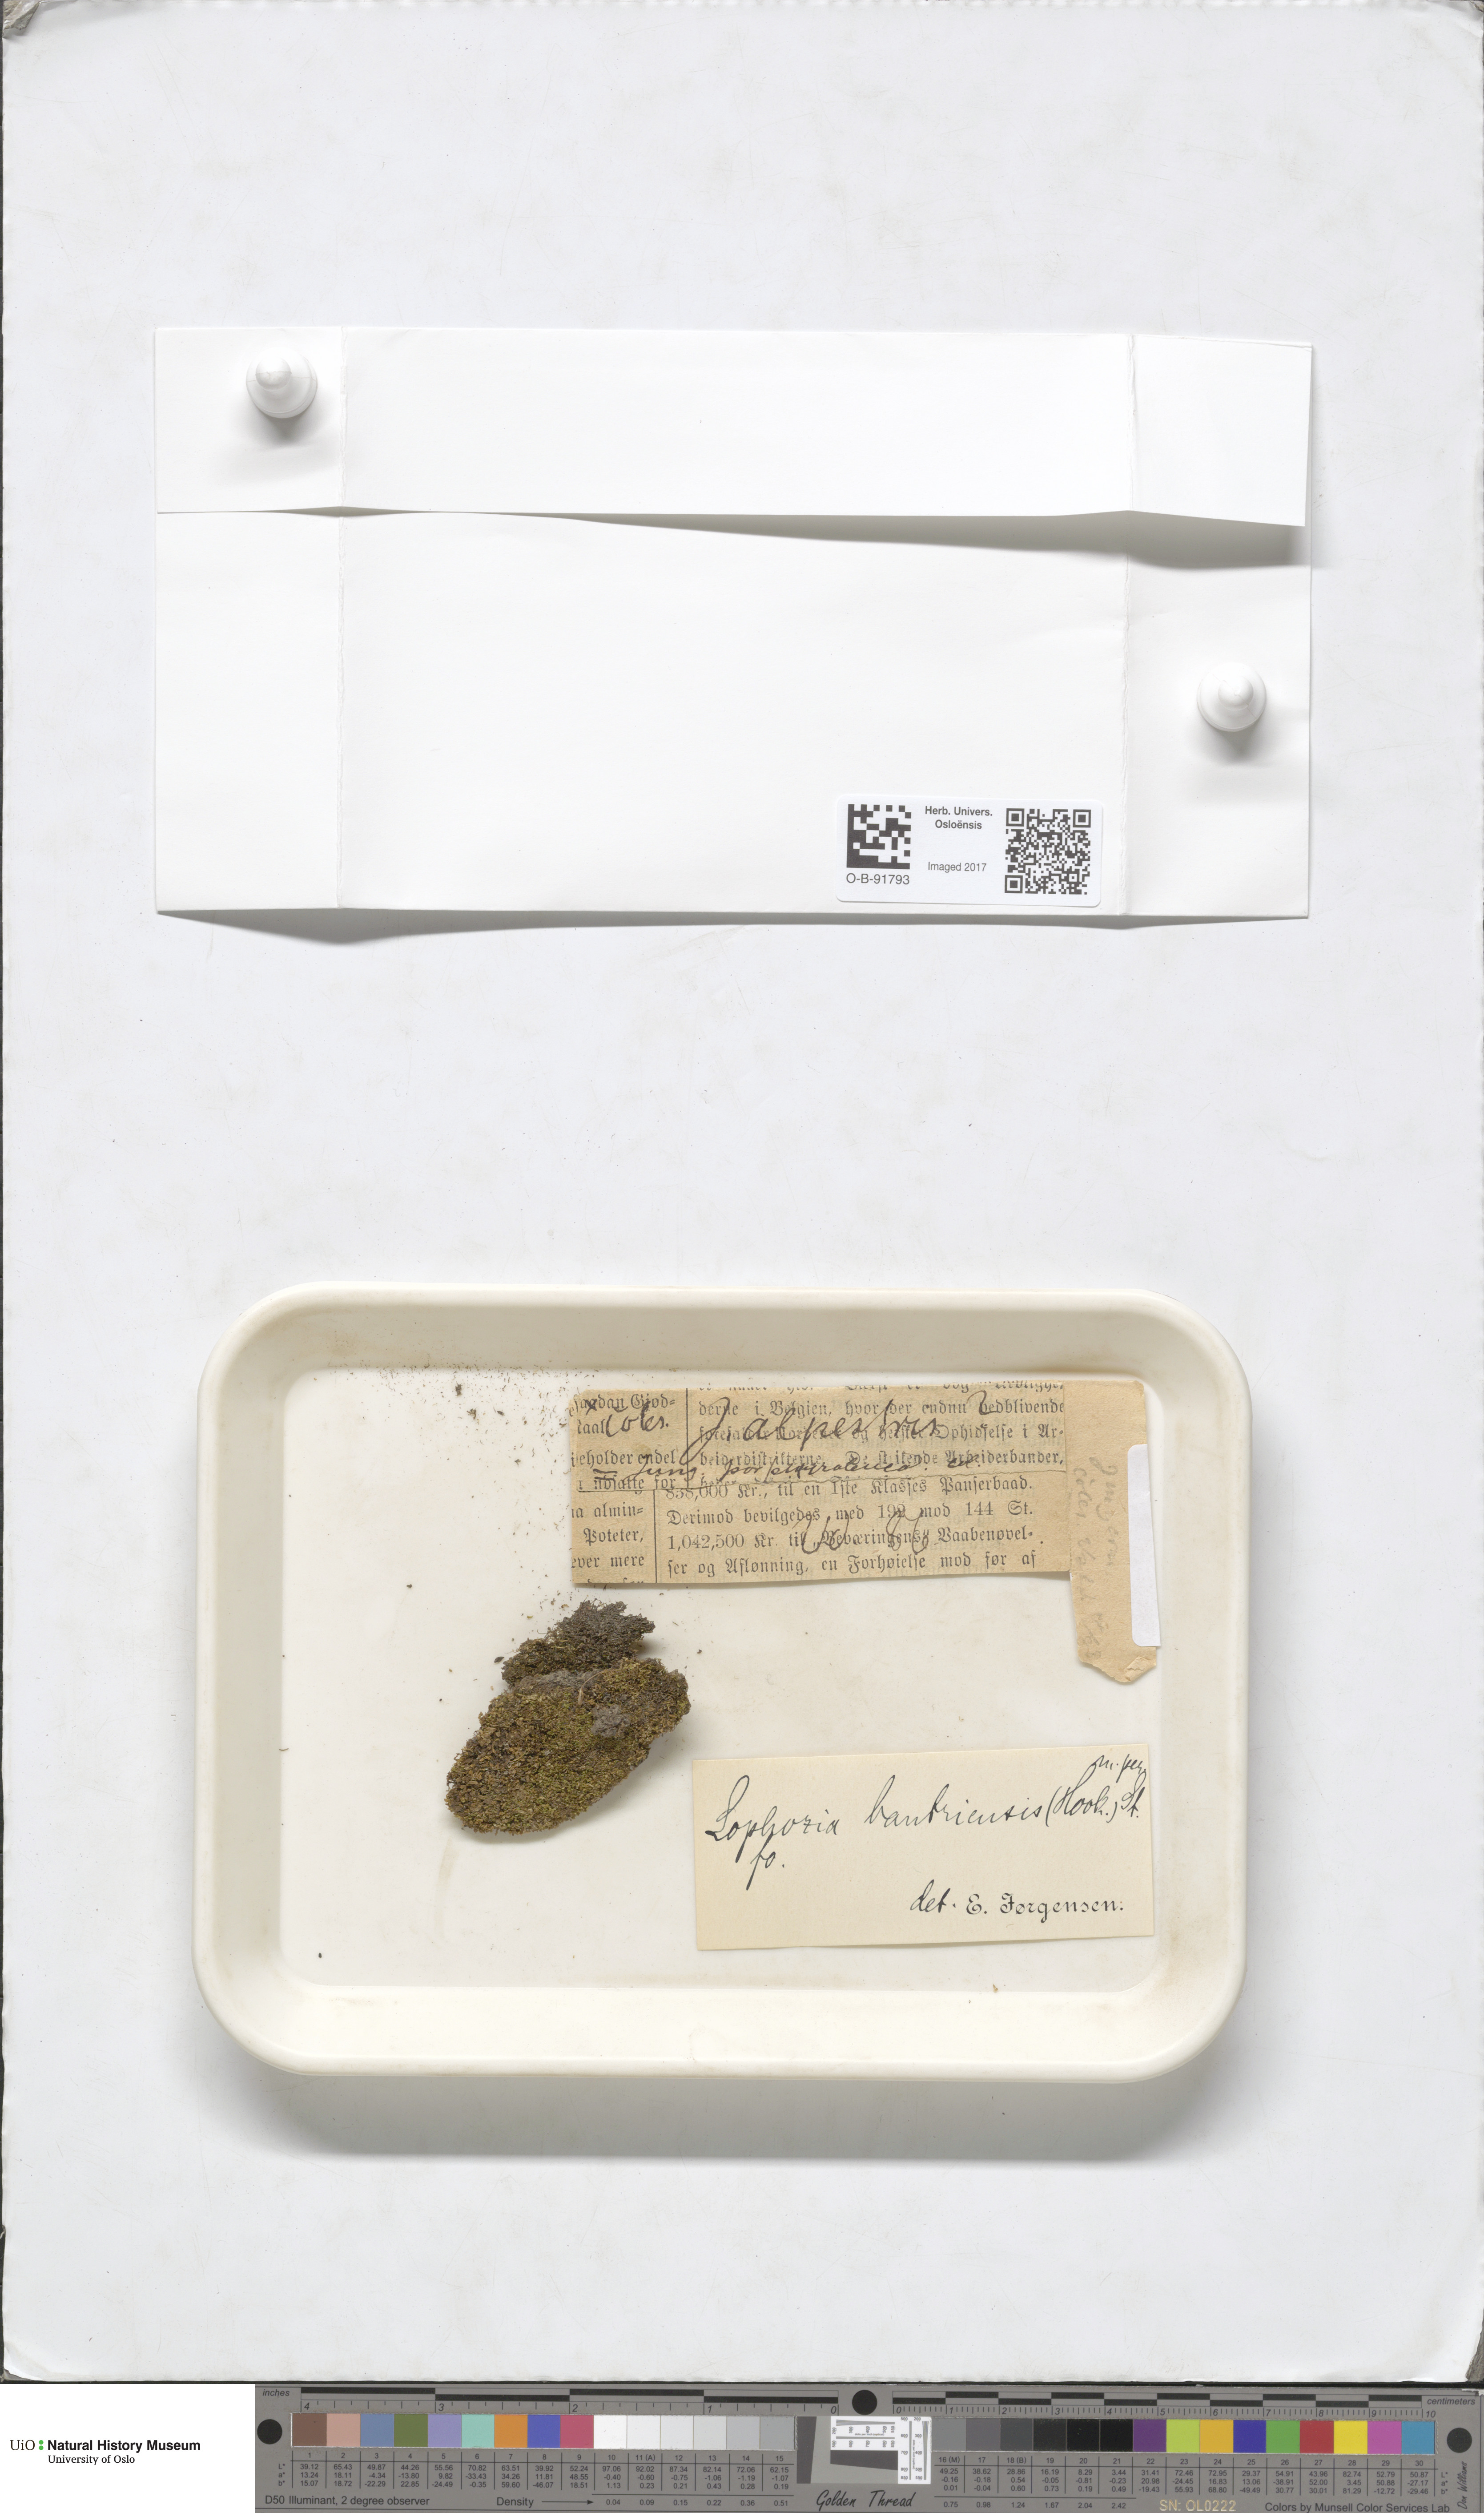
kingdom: Plantae
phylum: Marchantiophyta
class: Jungermanniopsida
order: Jungermanniales
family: Jungermanniaceae
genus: Mesoptychia
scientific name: Mesoptychia bantriensis
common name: Bantry notchwort
